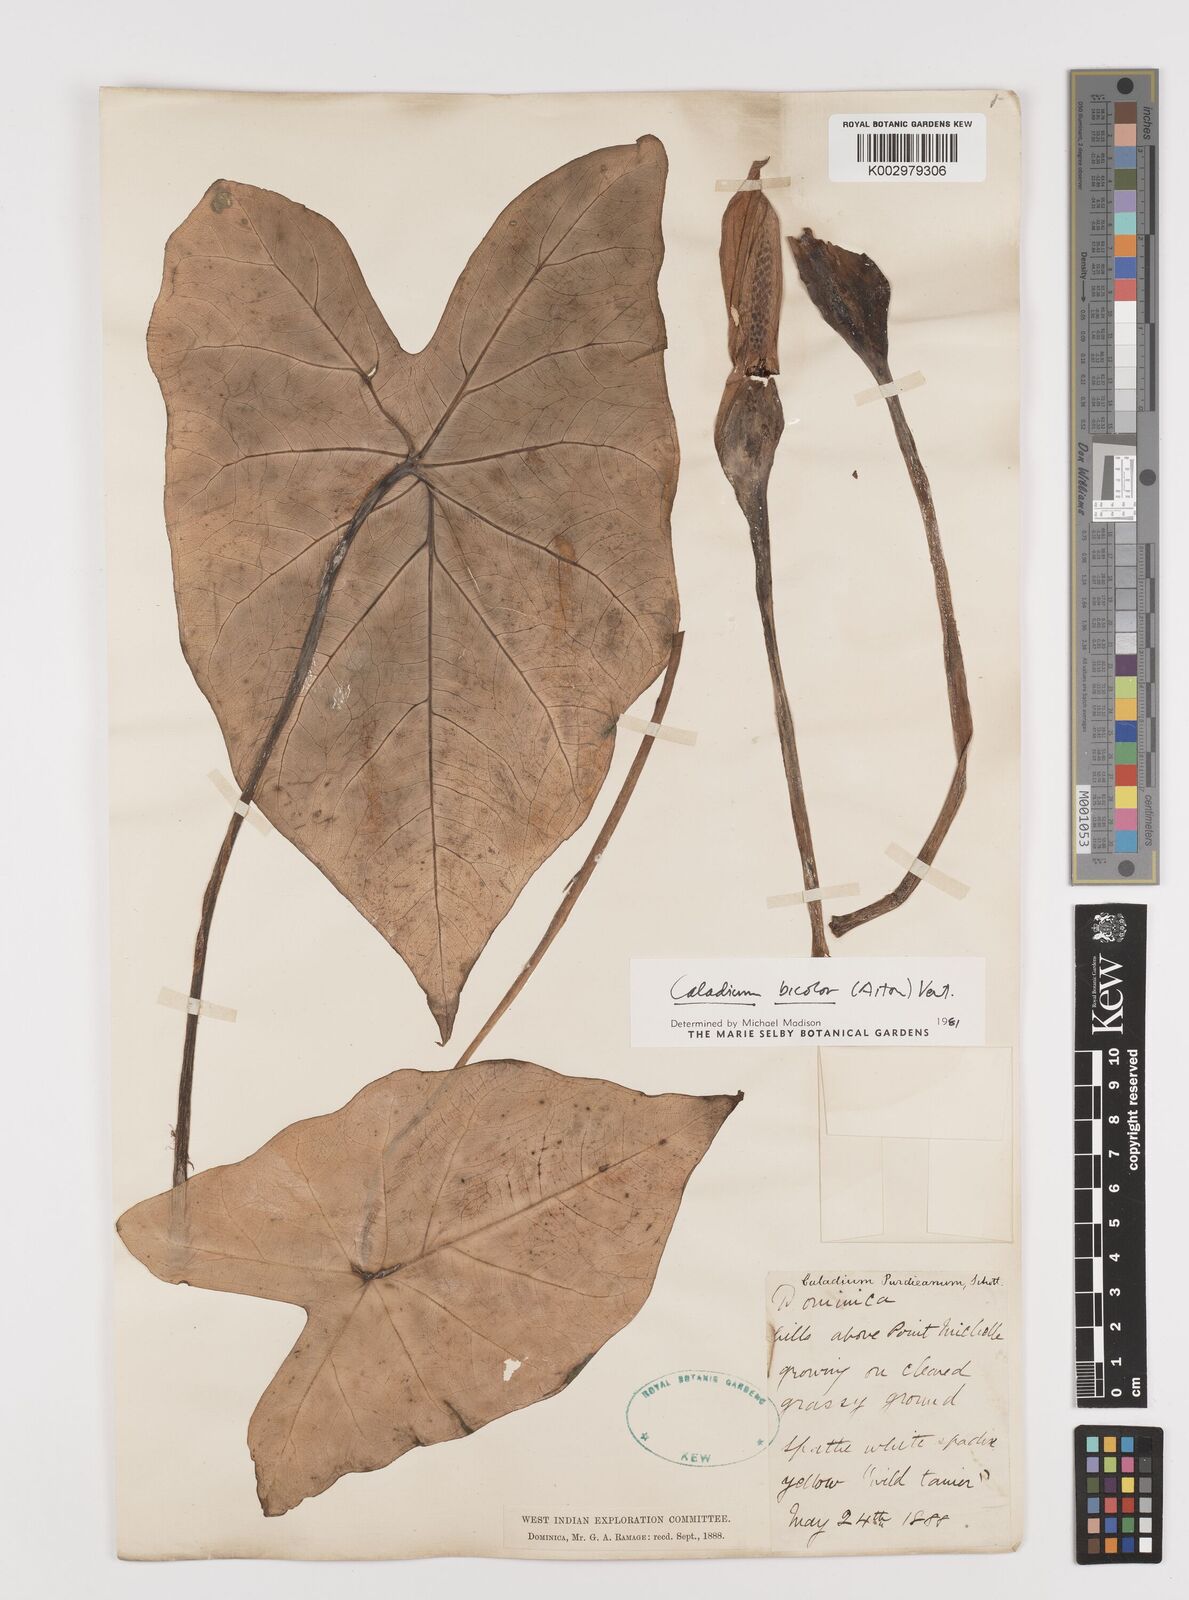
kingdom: Plantae
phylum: Tracheophyta
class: Liliopsida
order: Alismatales
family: Araceae
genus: Caladium
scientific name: Caladium bicolor
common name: Artist's pallet
